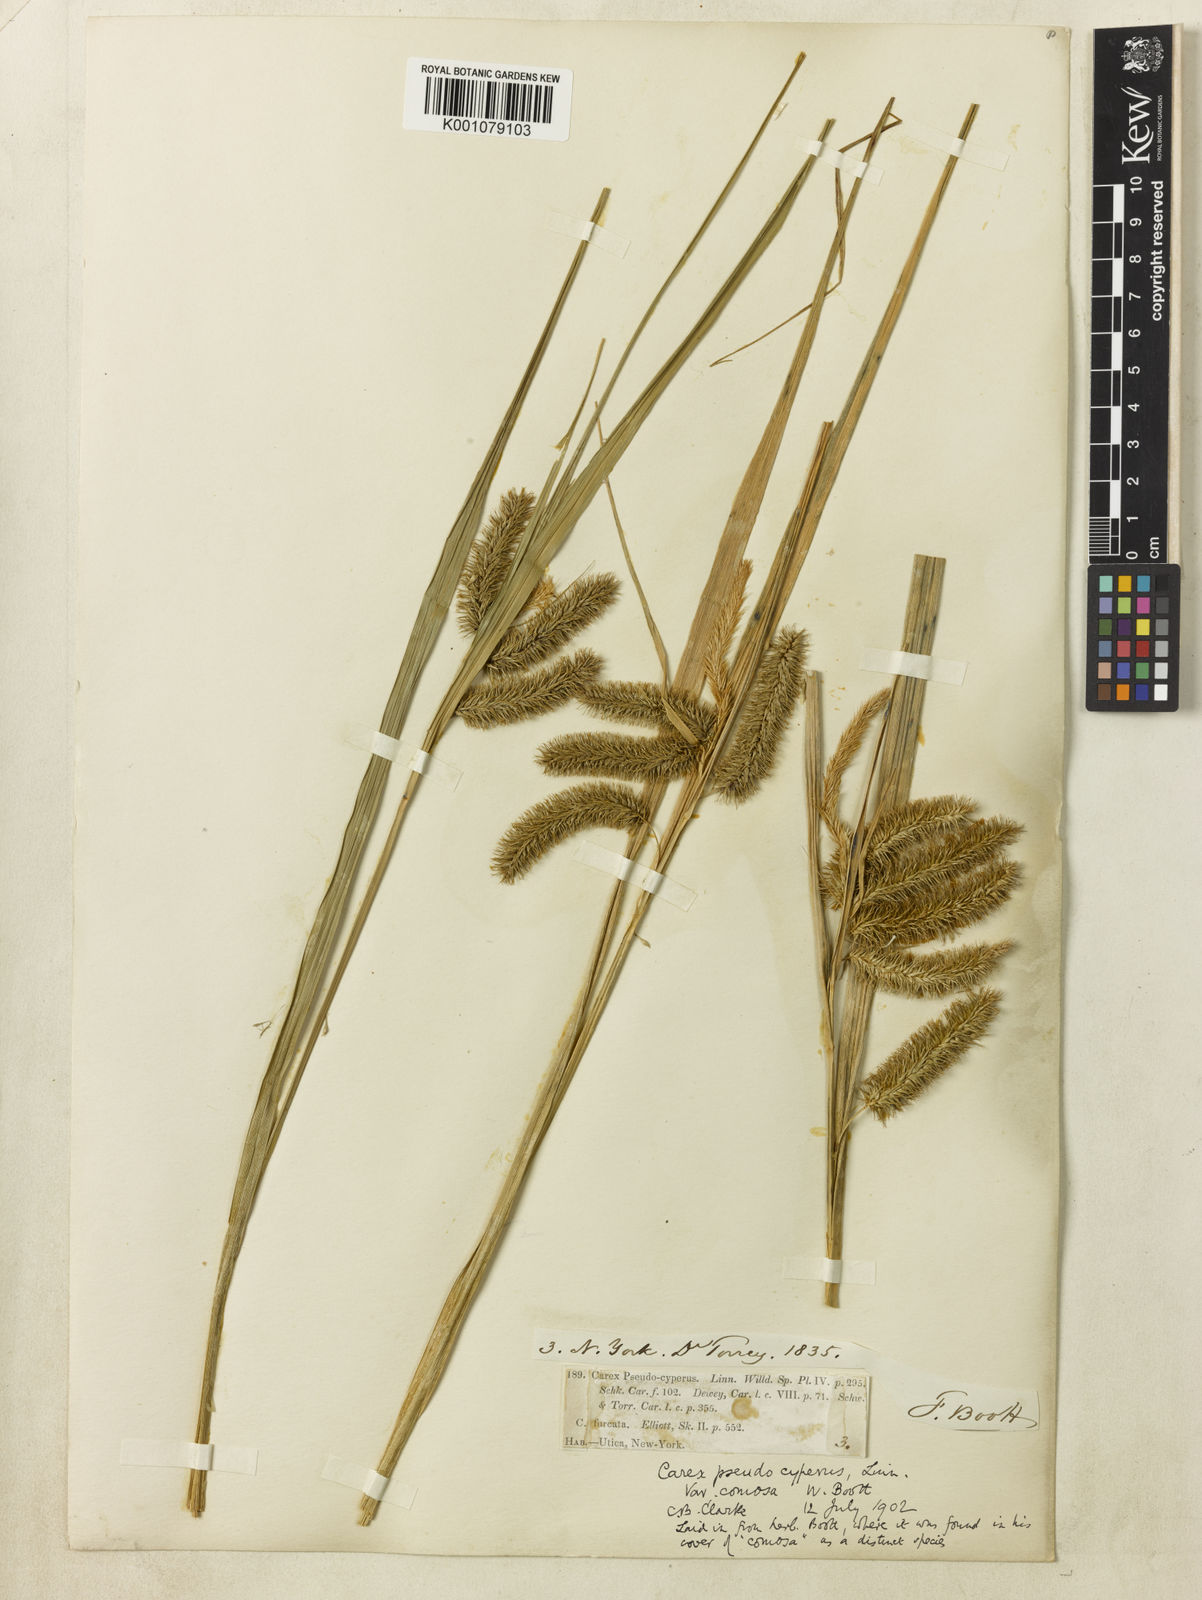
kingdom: Plantae
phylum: Tracheophyta
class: Liliopsida
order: Poales
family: Cyperaceae
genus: Carex
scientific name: Carex comosa
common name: Bristly sedge
